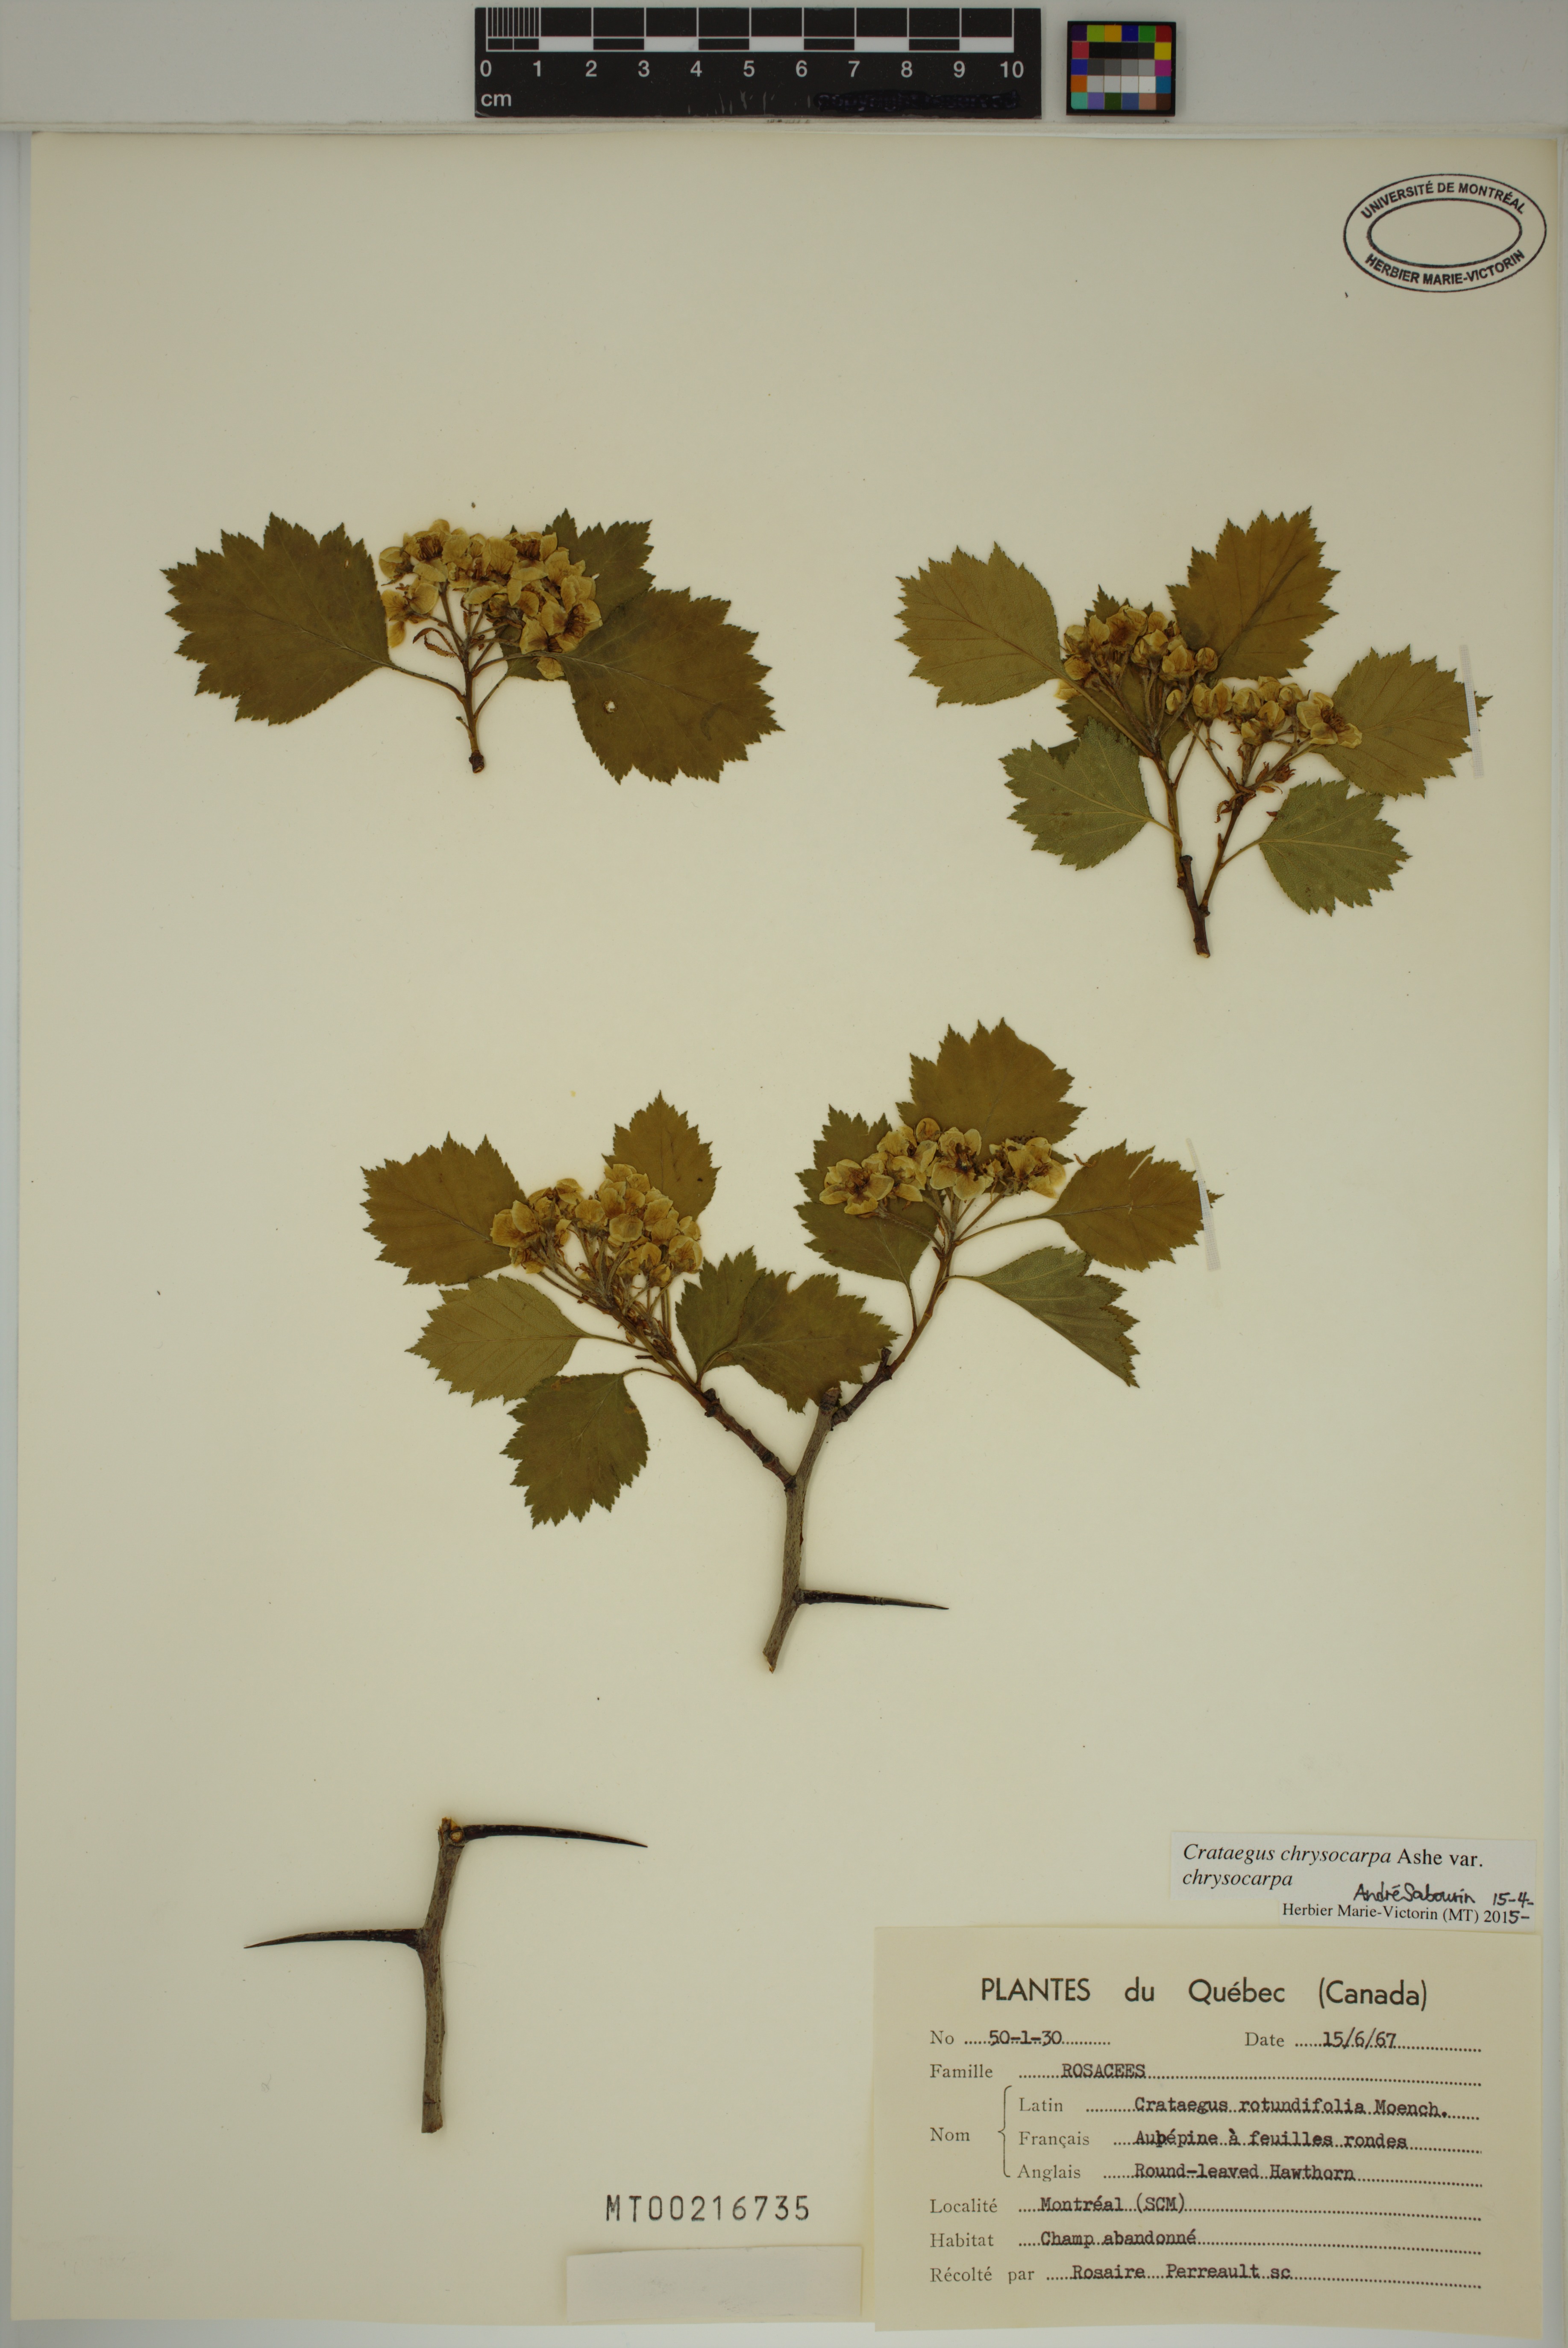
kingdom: Plantae
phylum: Tracheophyta
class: Magnoliopsida
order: Rosales
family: Rosaceae
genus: Crataegus
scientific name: Crataegus chrysocarpa
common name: Fire-berry hawthorn
